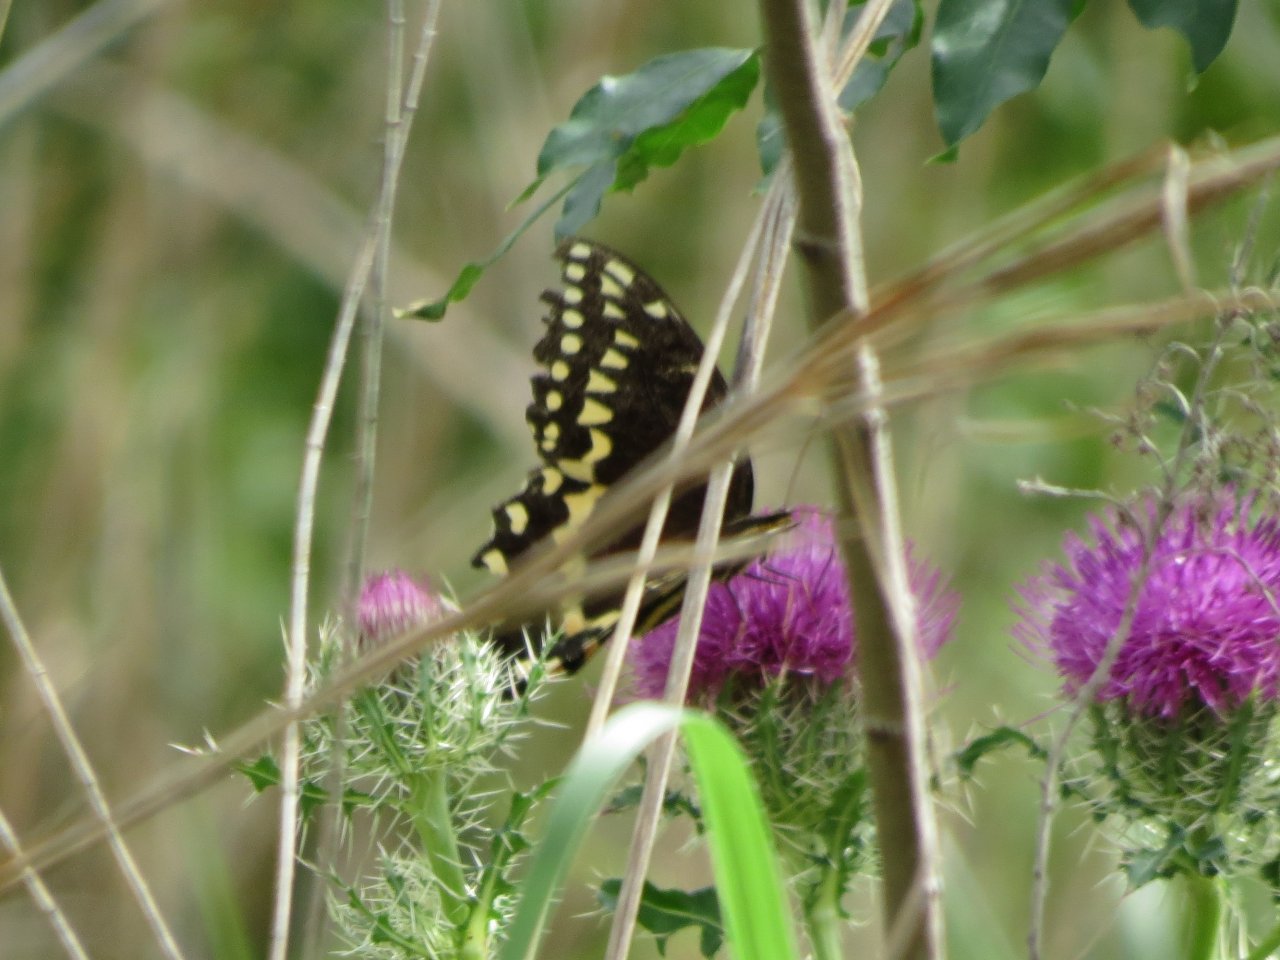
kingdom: Animalia
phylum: Arthropoda
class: Insecta
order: Lepidoptera
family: Papilionidae
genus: Pterourus
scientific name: Pterourus palamedes
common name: Palamedes Swallowtail
